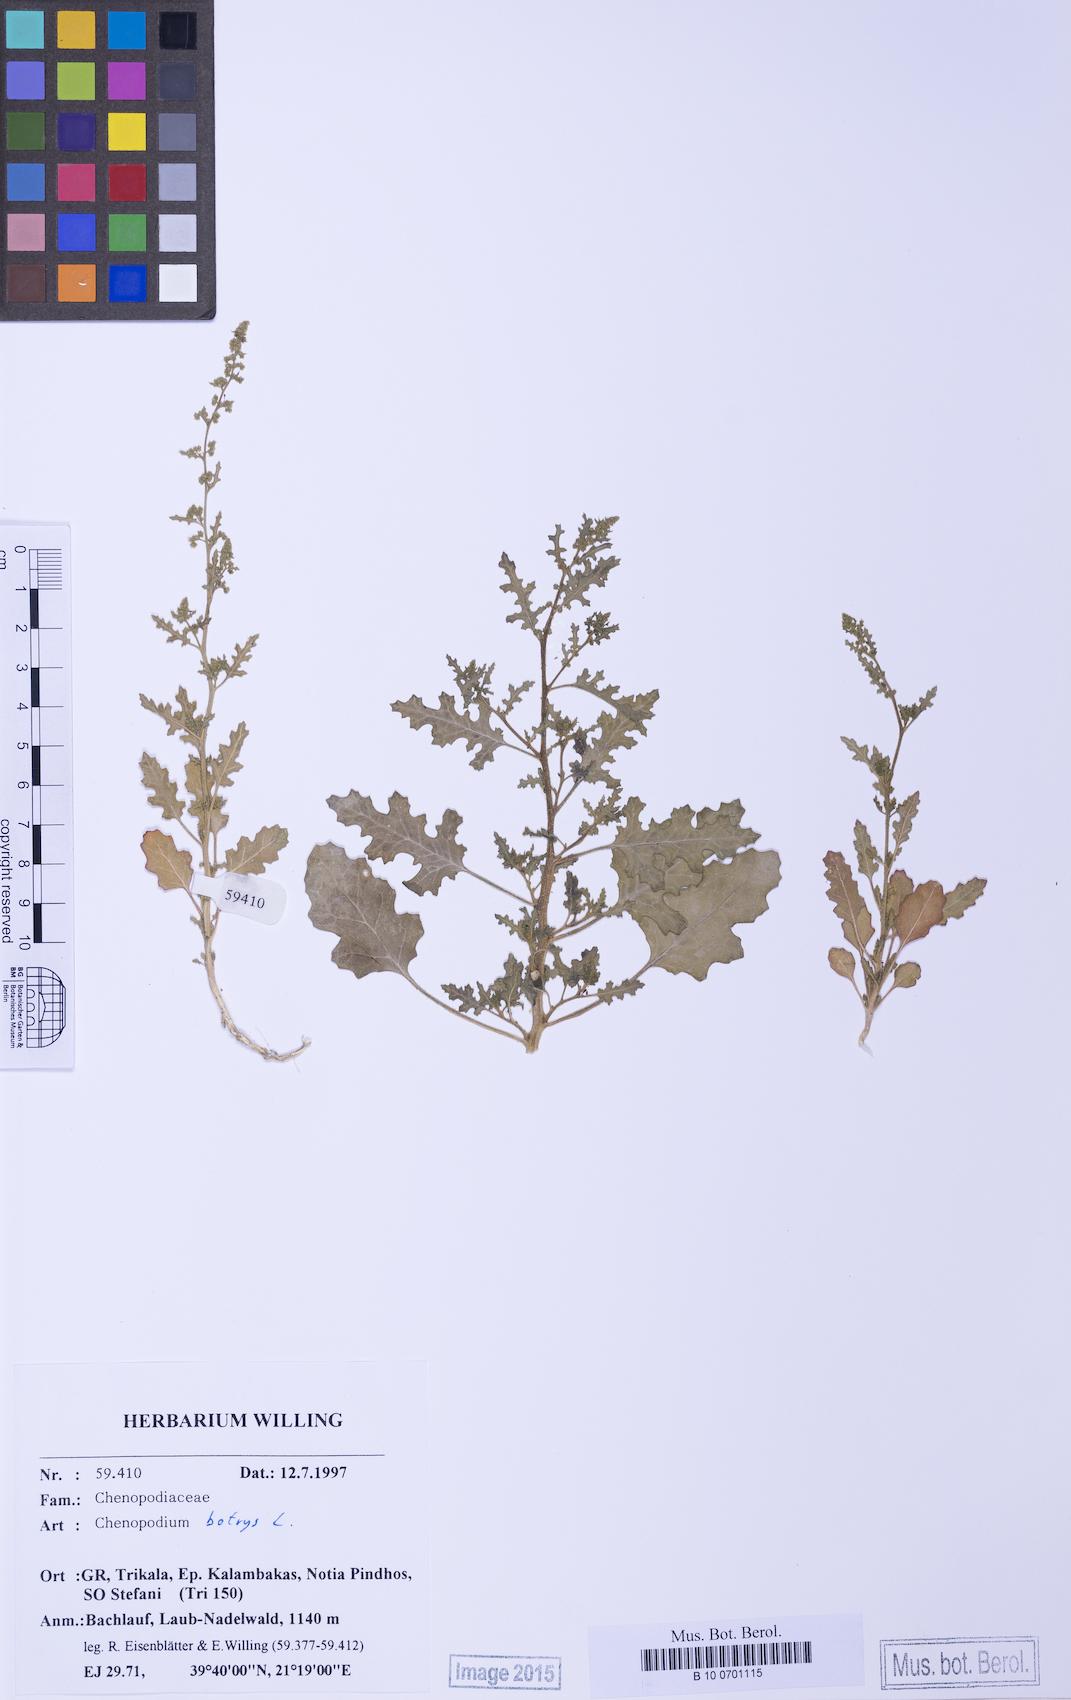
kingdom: Plantae
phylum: Tracheophyta
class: Magnoliopsida
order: Caryophyllales
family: Amaranthaceae
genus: Dysphania
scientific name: Dysphania botrys
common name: Feather-geranium
